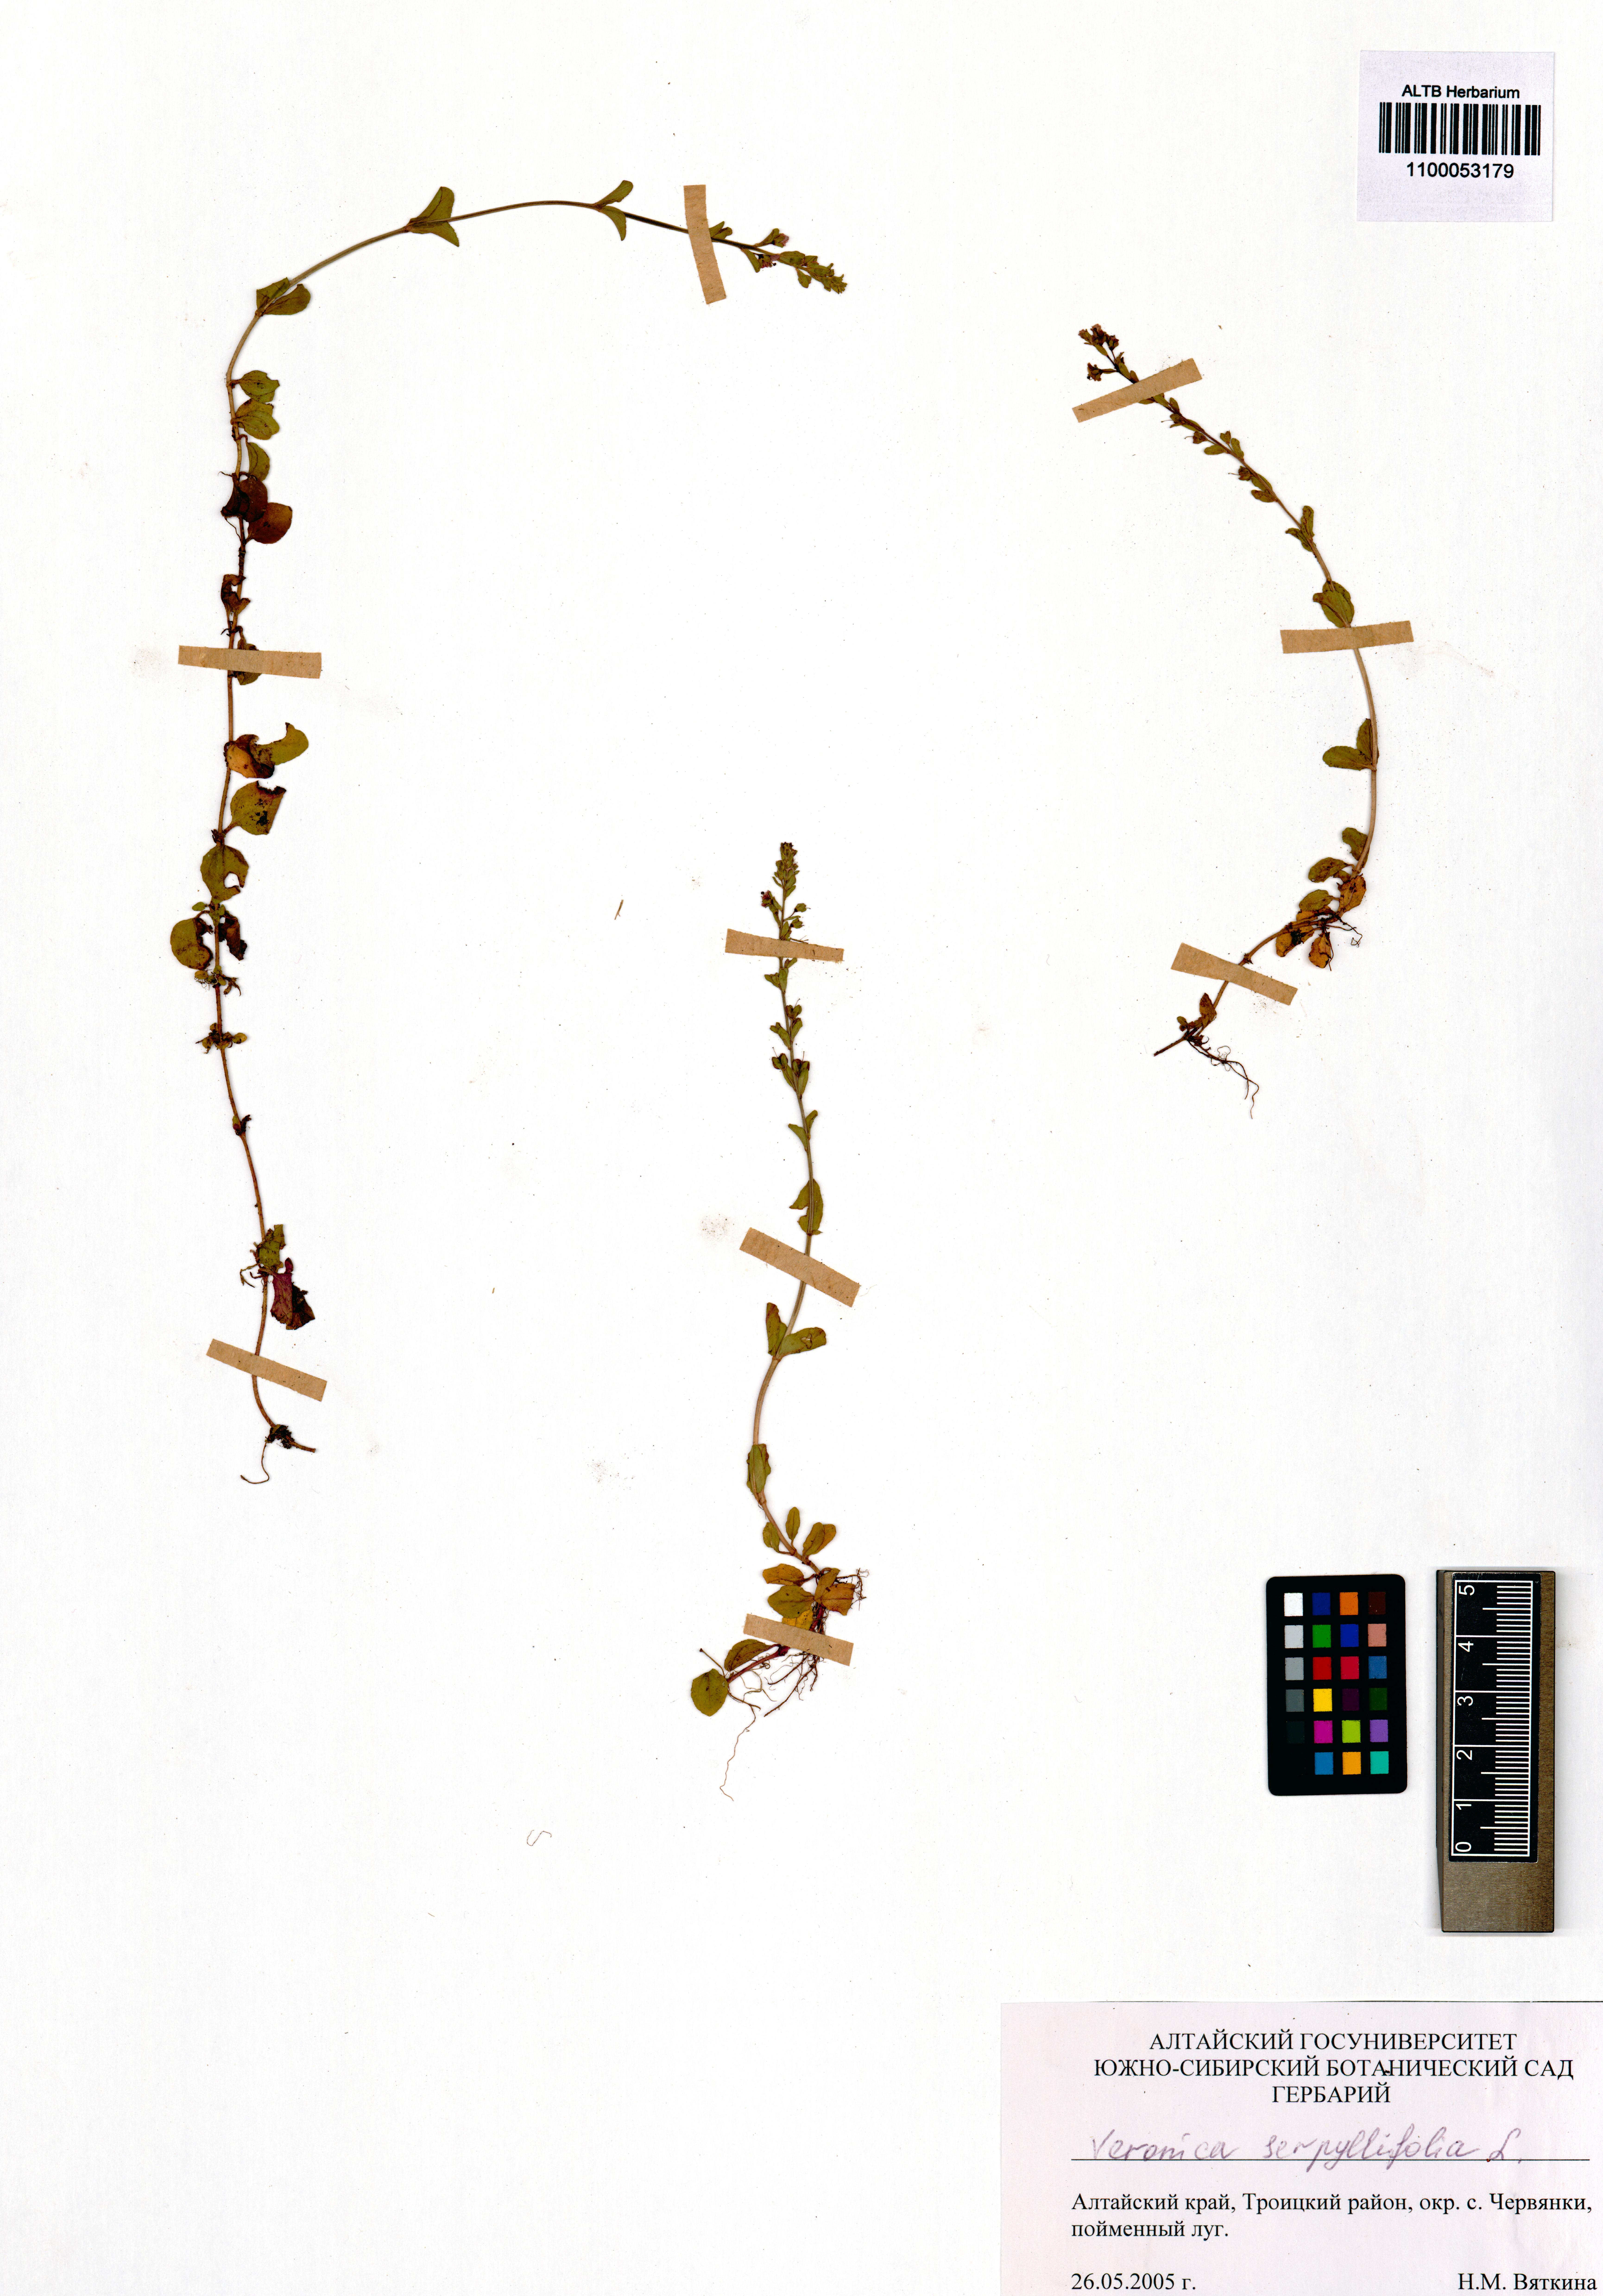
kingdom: Plantae
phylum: Tracheophyta
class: Magnoliopsida
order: Lamiales
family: Plantaginaceae
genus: Veronica
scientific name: Veronica serpyllifolia
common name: Thyme-leaved speedwell
